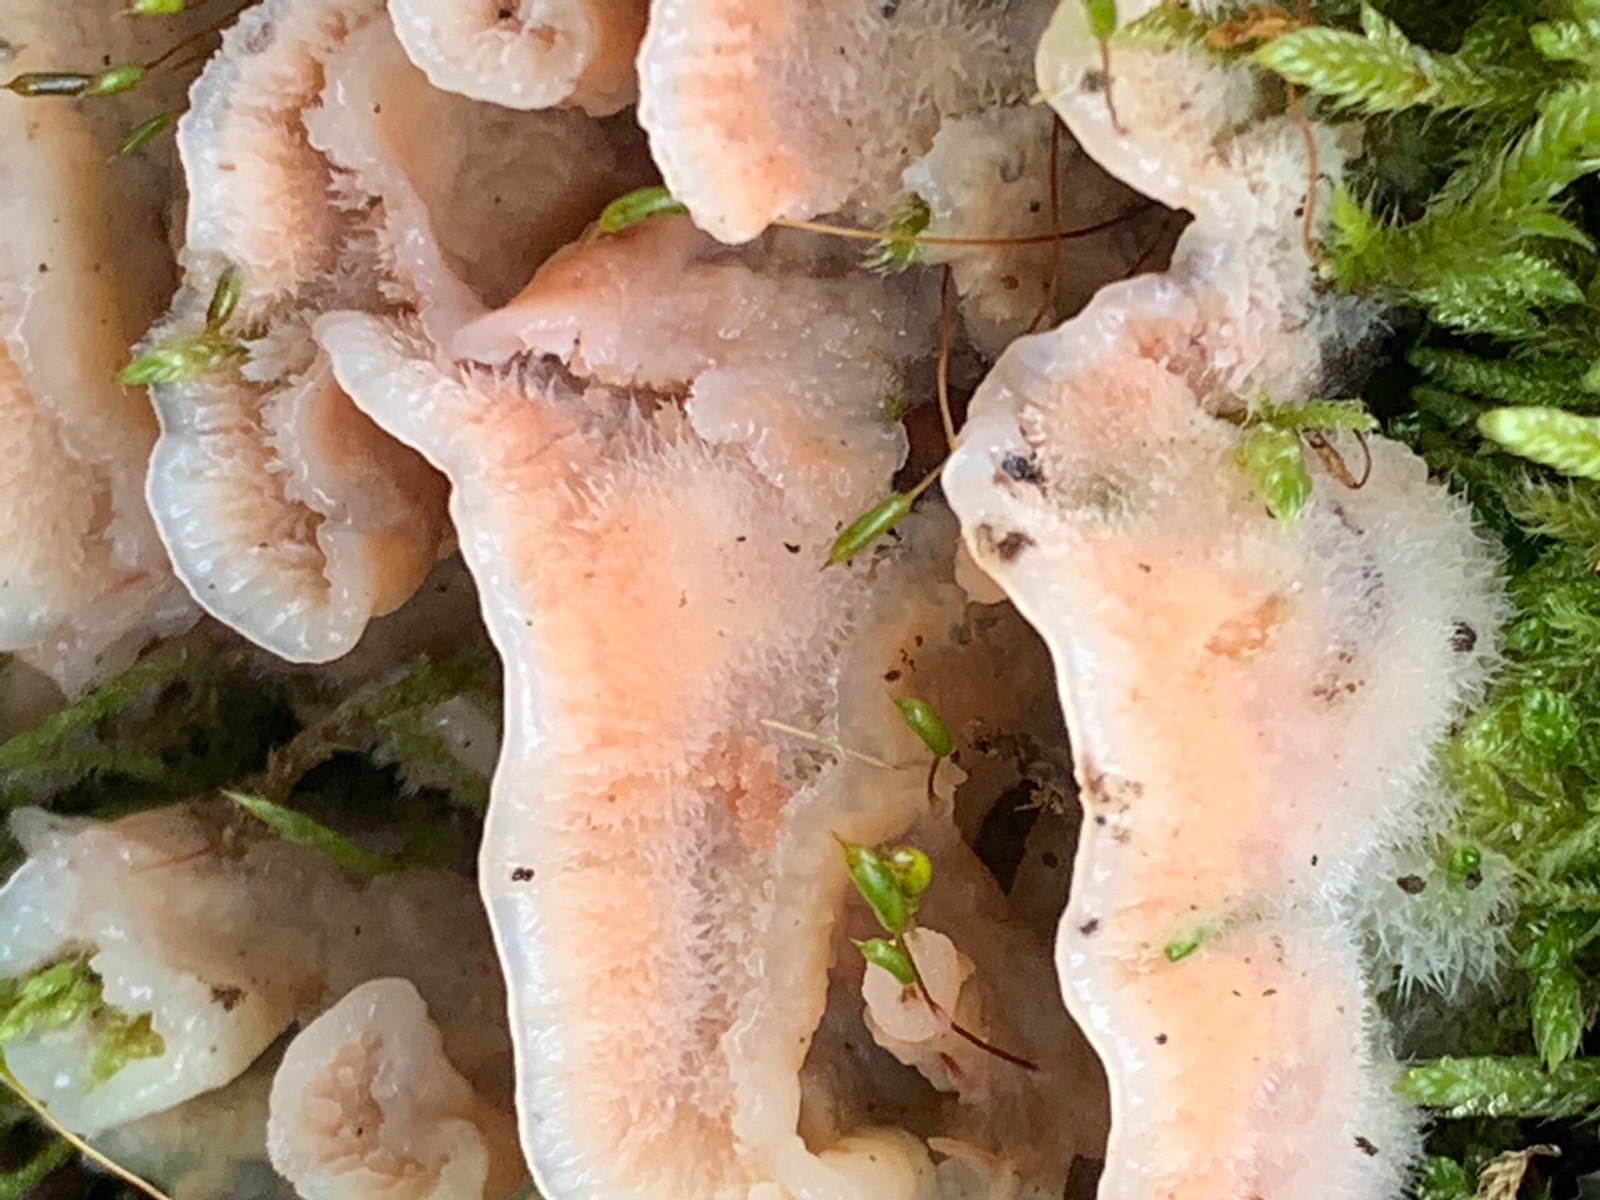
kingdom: Fungi
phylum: Basidiomycota
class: Agaricomycetes
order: Polyporales
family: Meruliaceae
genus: Phlebia
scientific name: Phlebia tremellosa
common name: bævrende åresvamp
